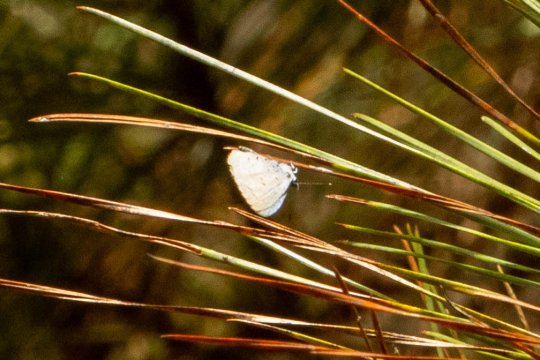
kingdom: Animalia
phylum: Arthropoda
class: Insecta
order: Lepidoptera
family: Lycaenidae
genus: Celastrina
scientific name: Celastrina ladon
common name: Spring Azure
